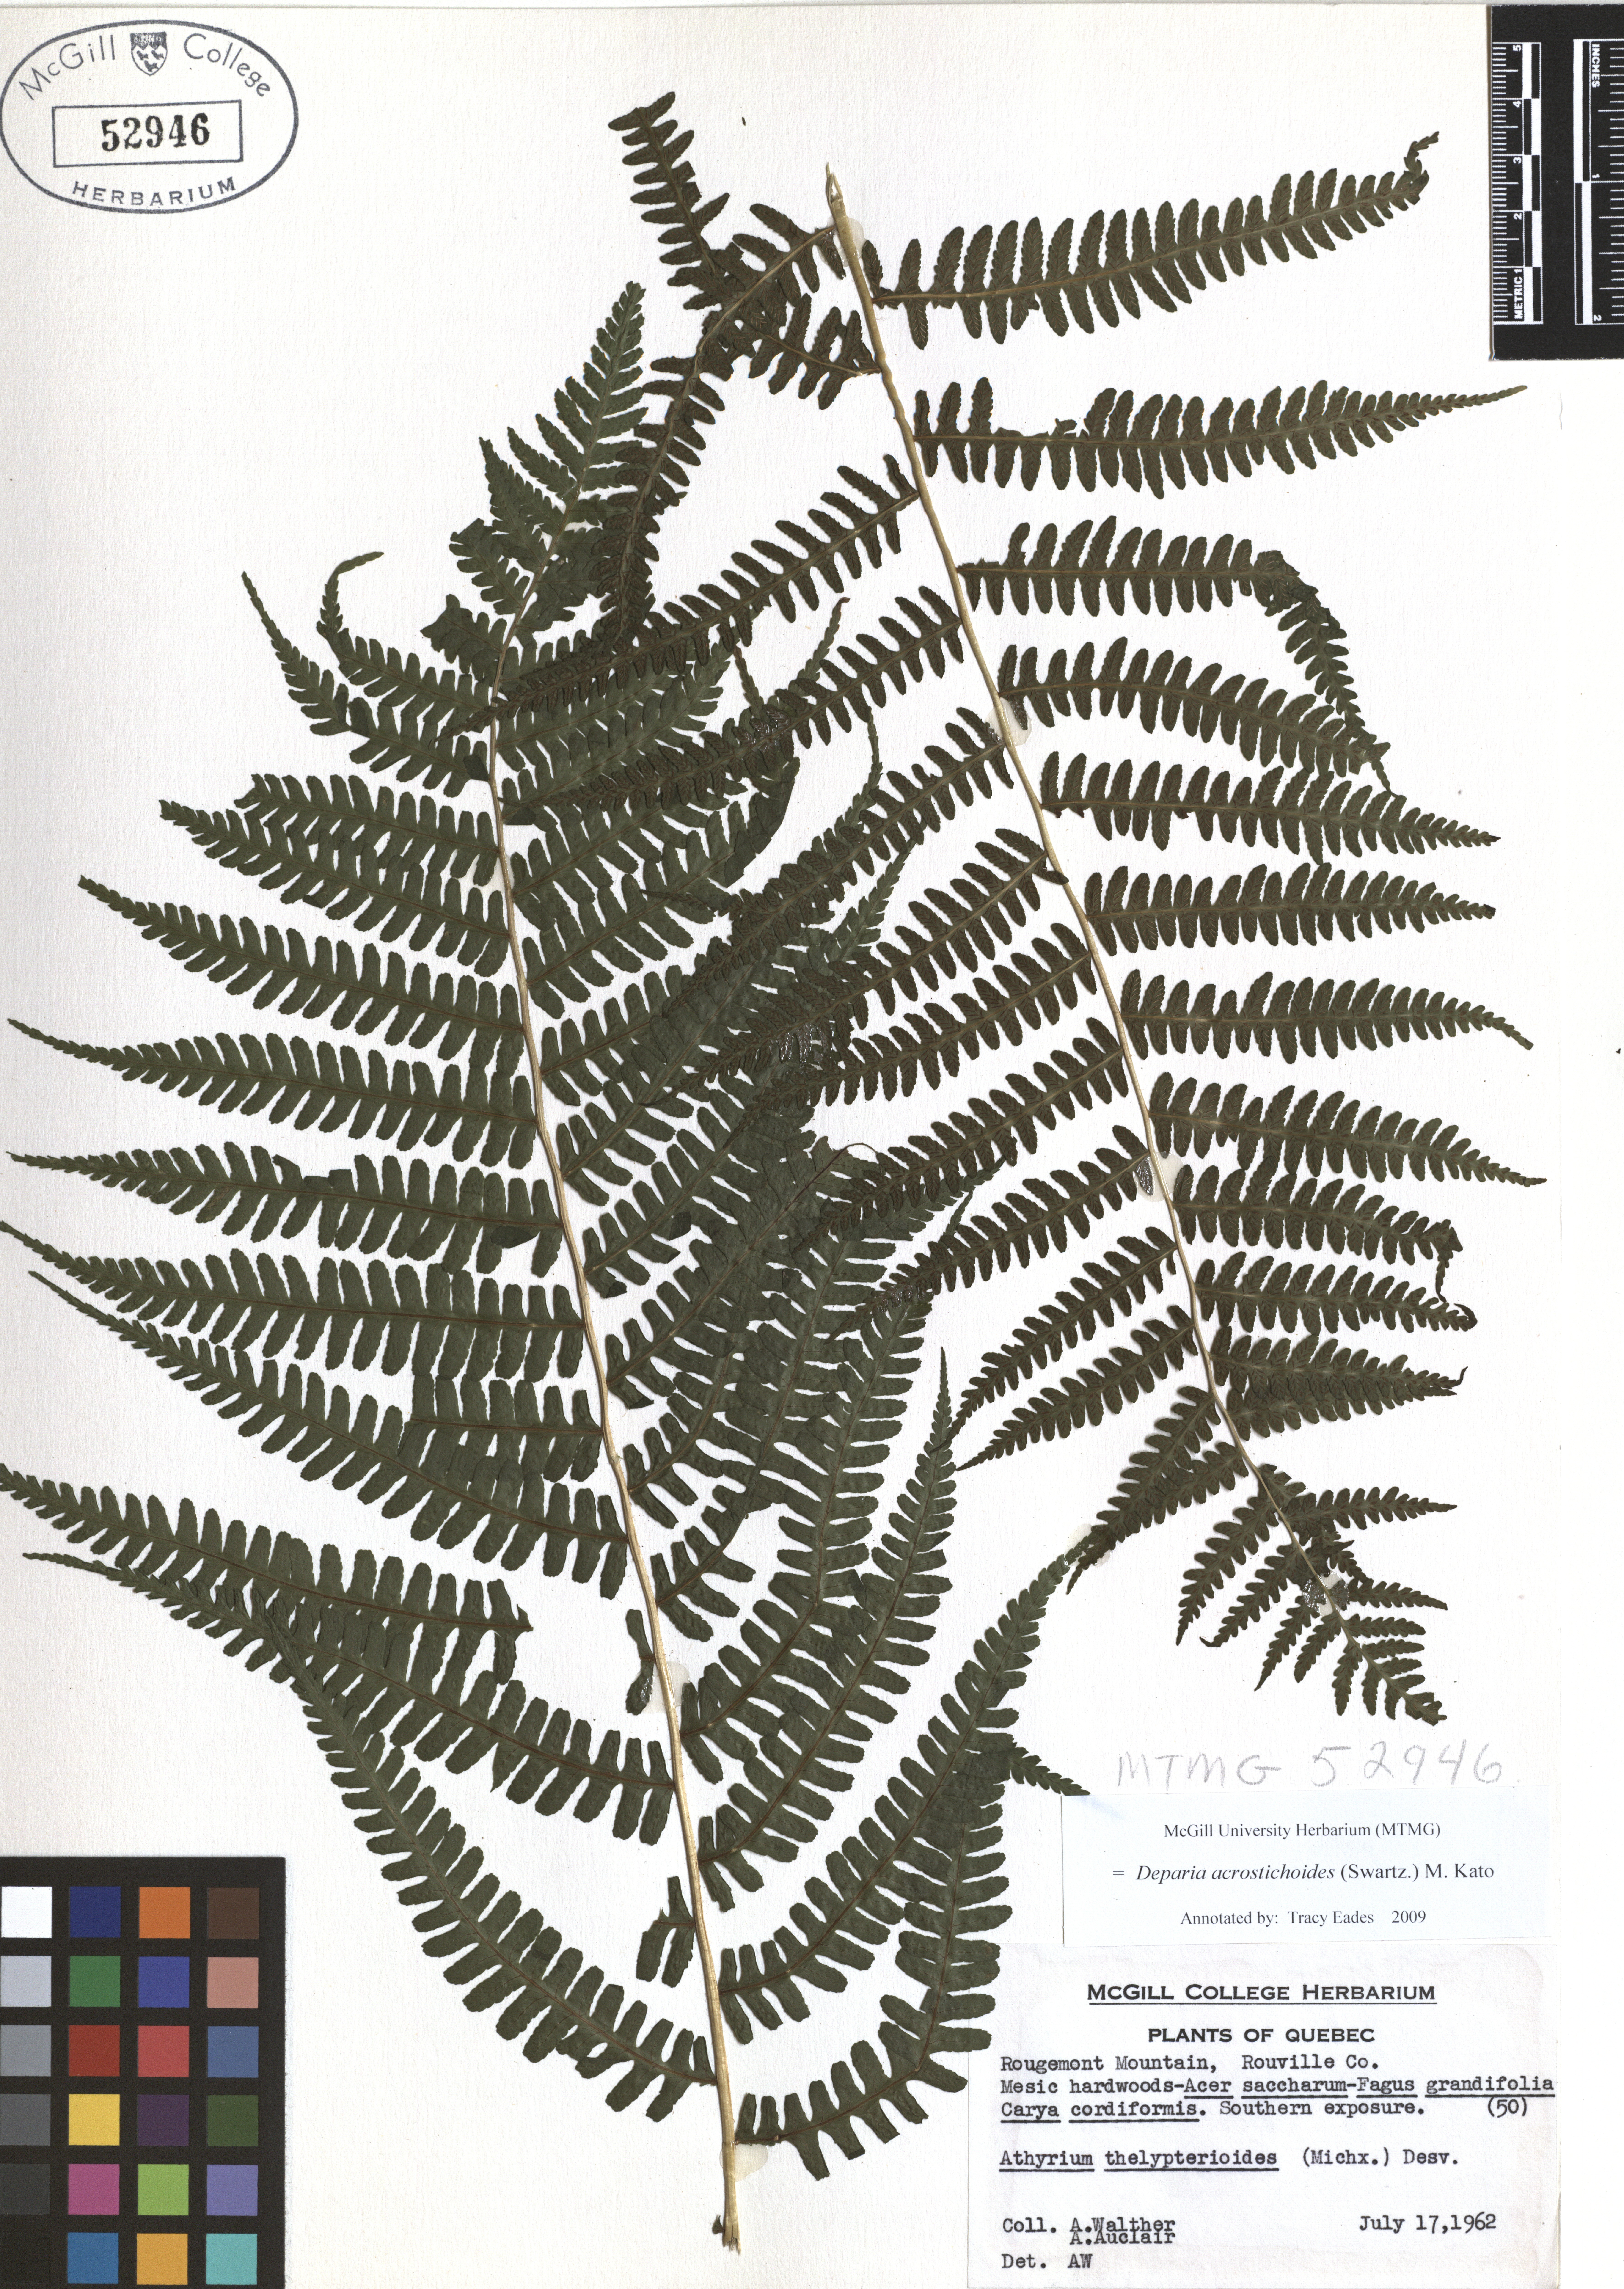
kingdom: Plantae
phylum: Tracheophyta
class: Polypodiopsida
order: Polypodiales
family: Athyriaceae
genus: Deparia
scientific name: Deparia acrostichoides
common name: Silver false spleenwort
